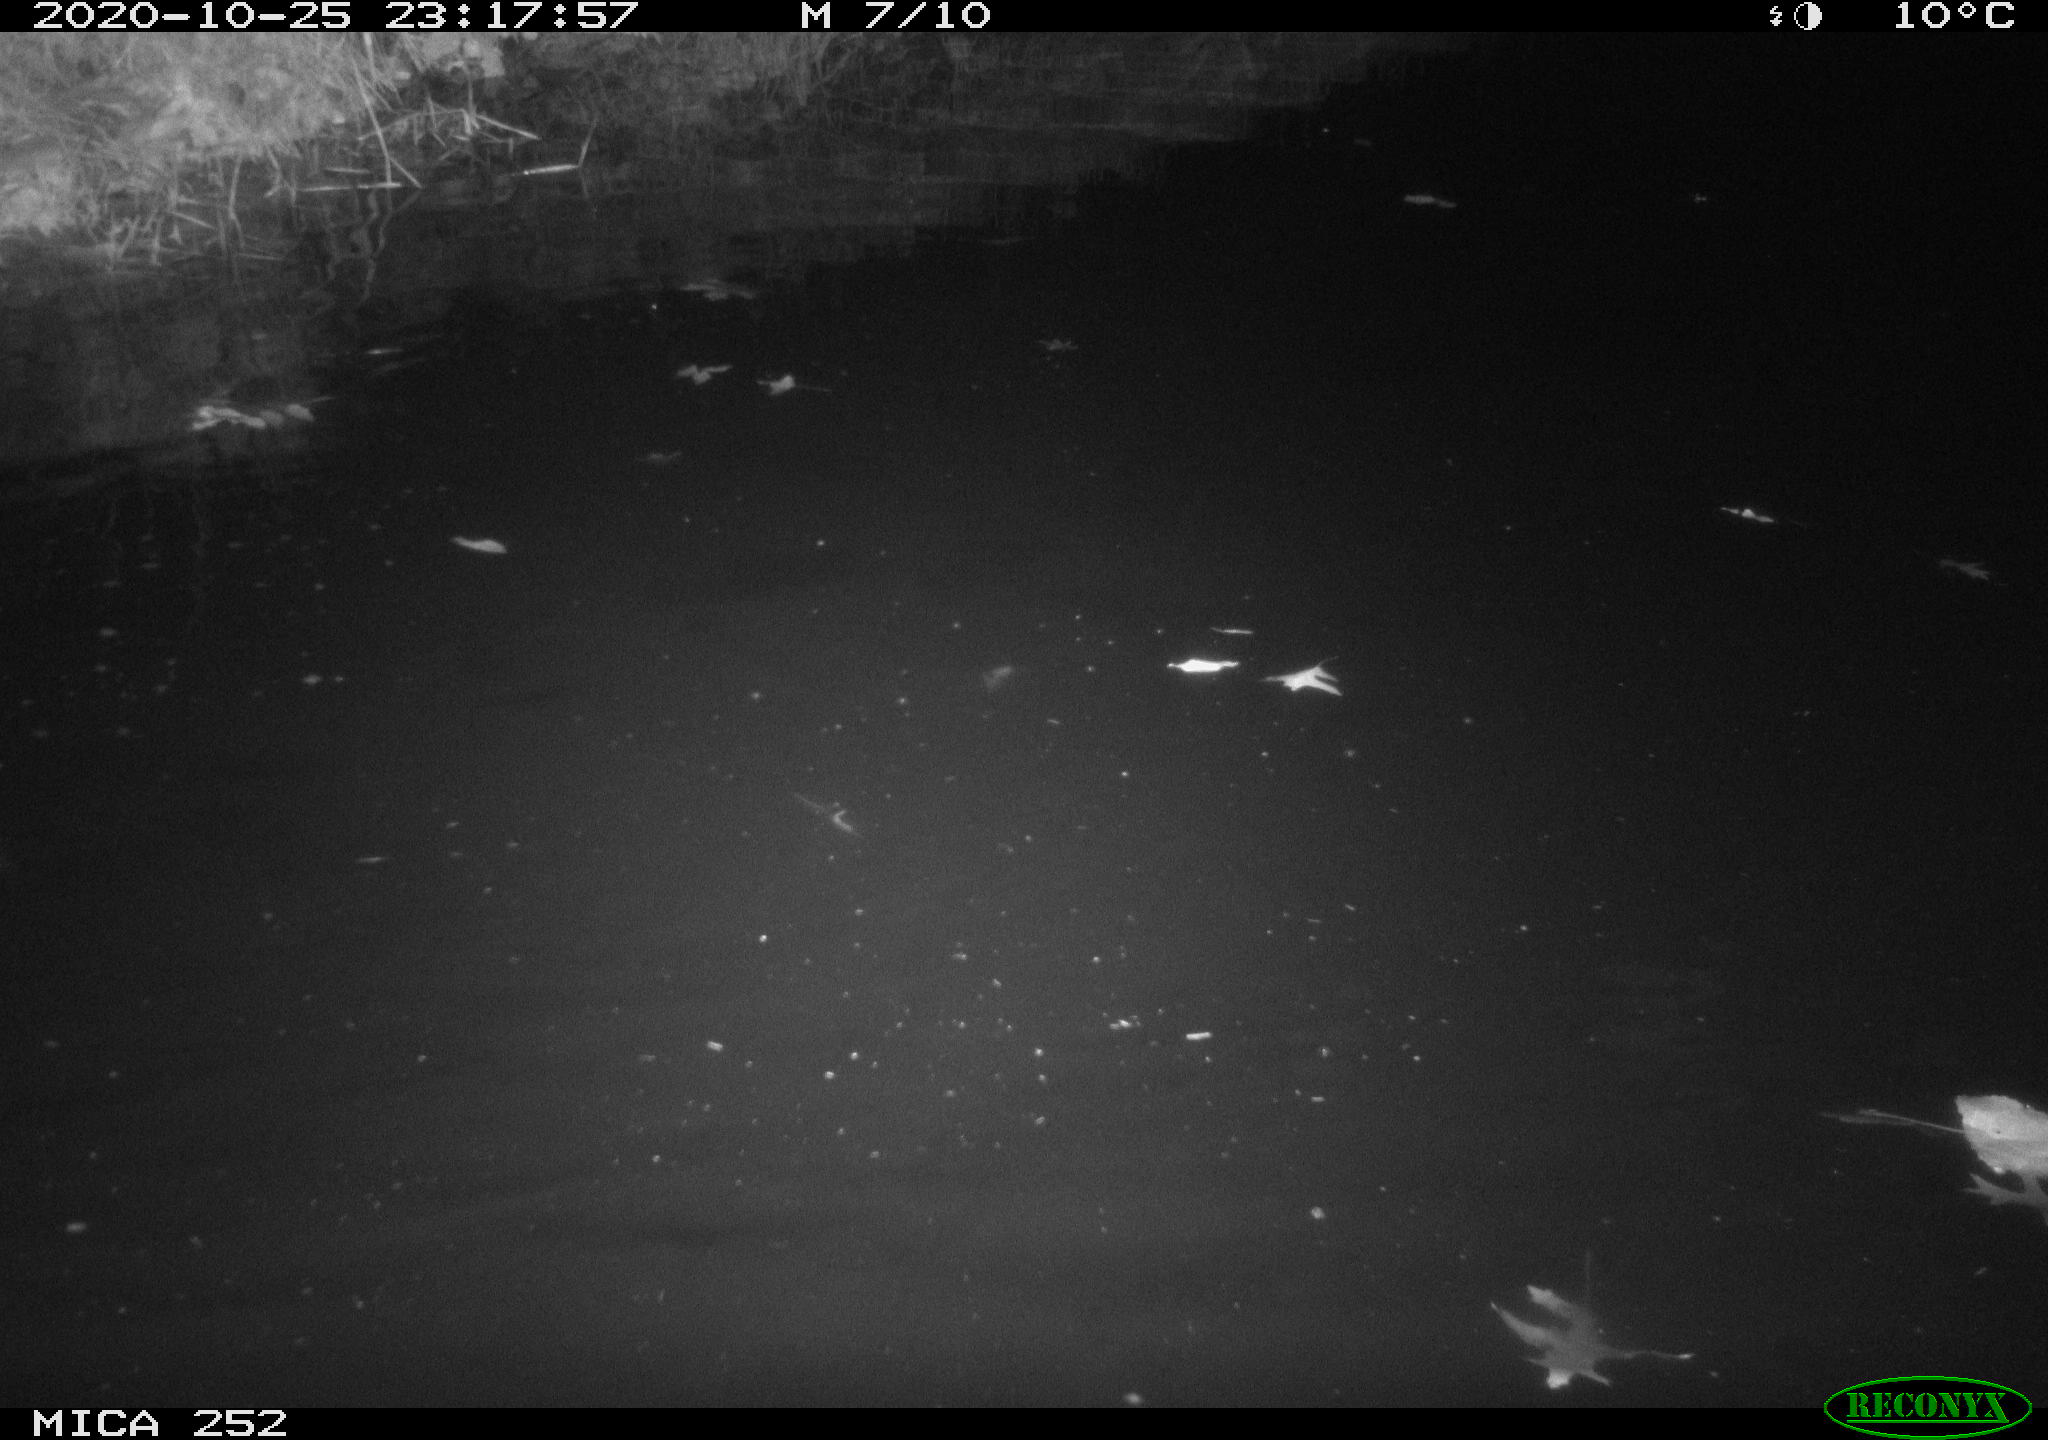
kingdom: Animalia
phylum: Chordata
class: Mammalia
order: Rodentia
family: Castoridae
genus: Castor
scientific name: Castor fiber
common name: Eurasian beaver
